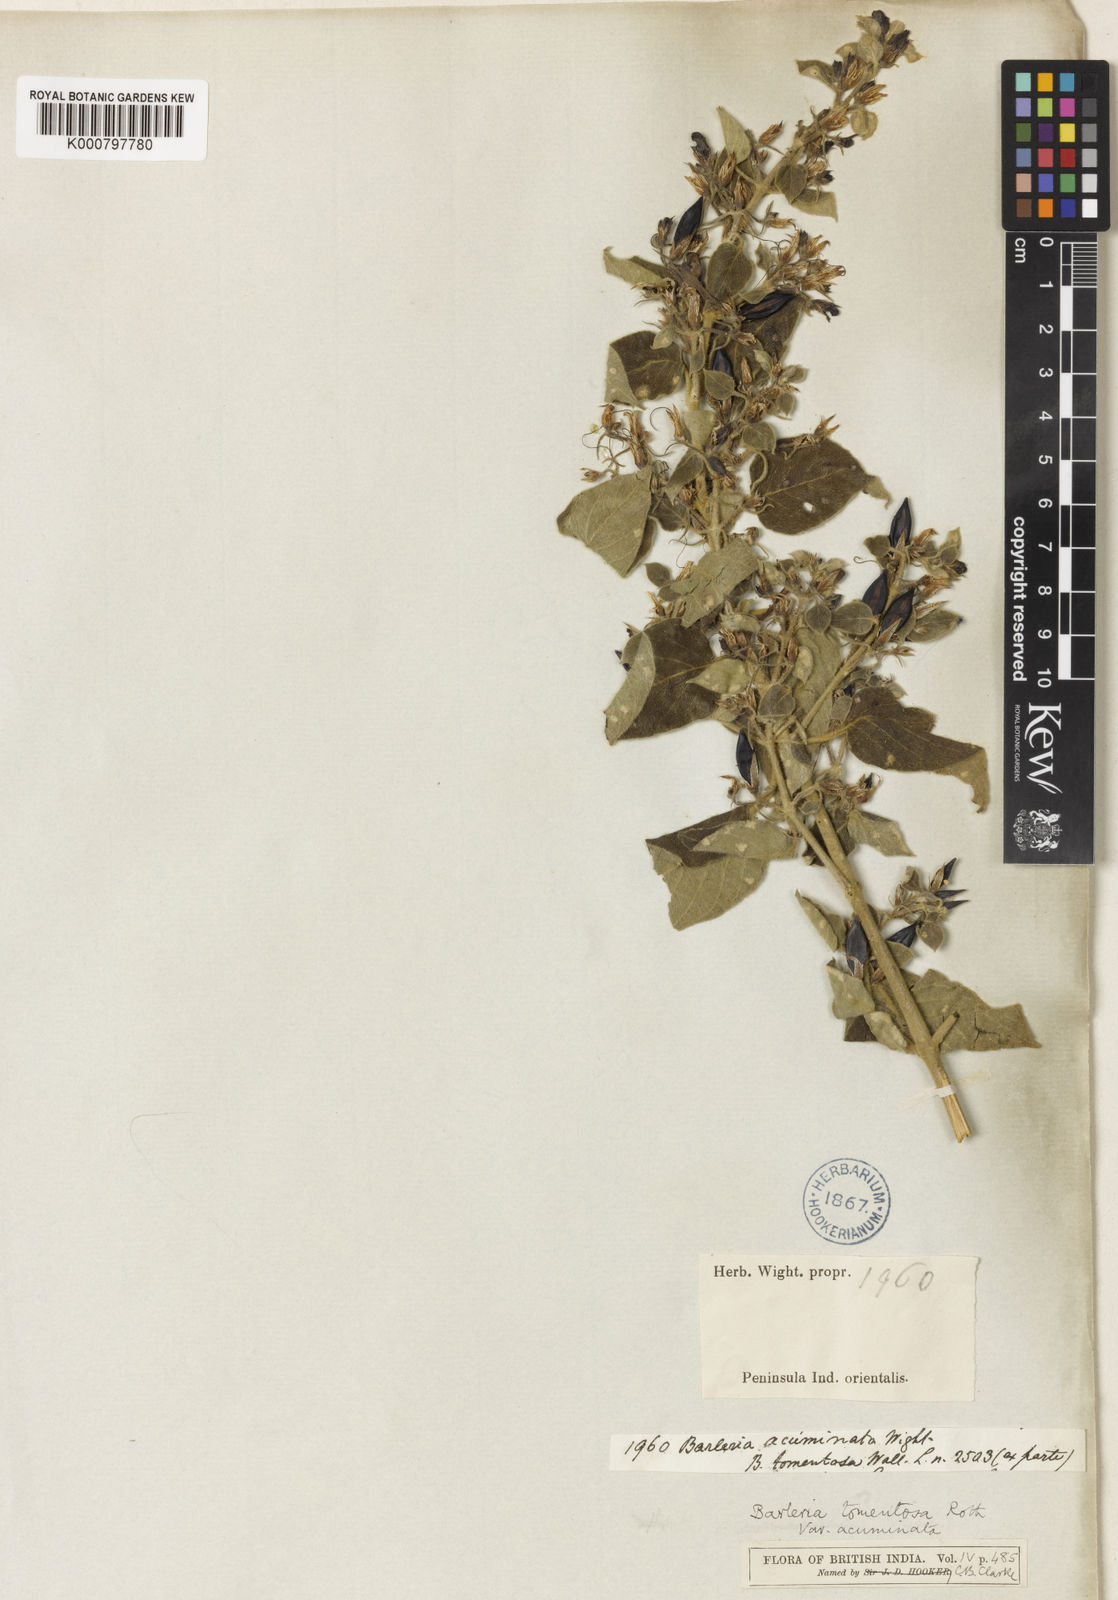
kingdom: Plantae
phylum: Tracheophyta
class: Magnoliopsida
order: Lamiales
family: Acanthaceae
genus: Barleria
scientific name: Barleria tomentosa
